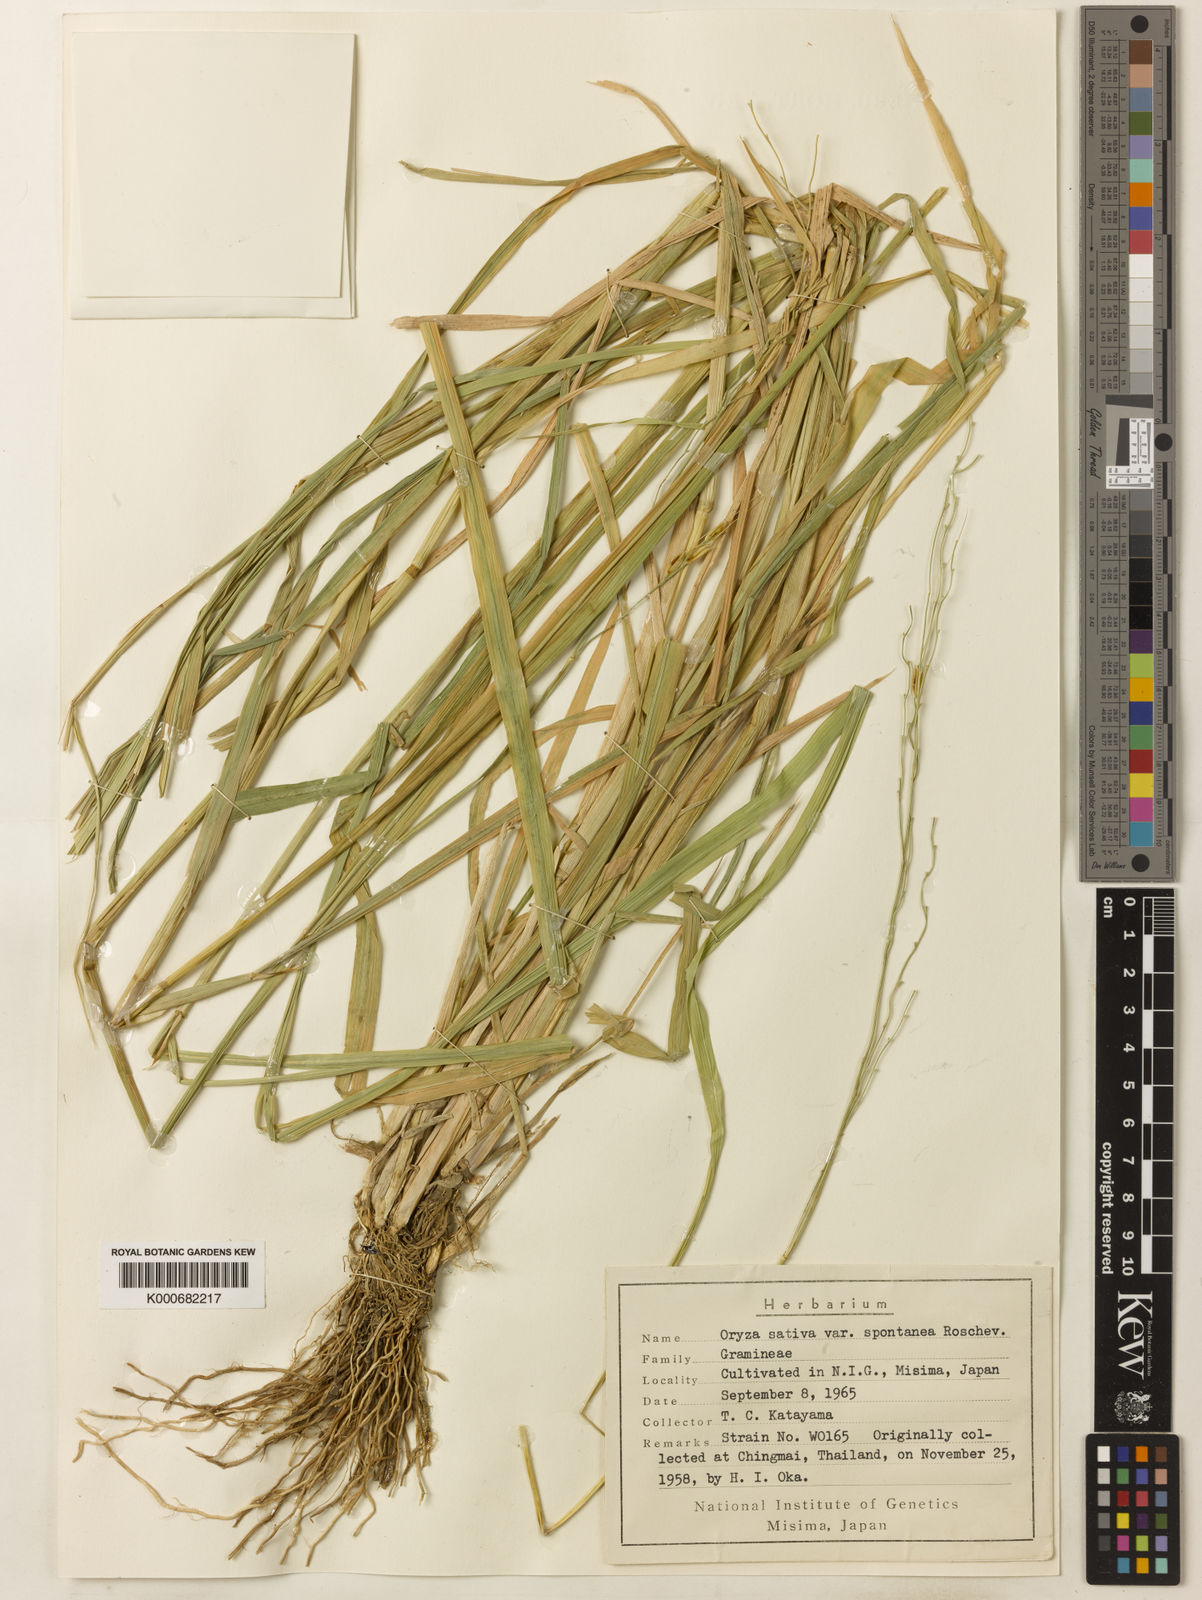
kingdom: Plantae
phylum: Tracheophyta
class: Liliopsida
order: Poales
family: Poaceae
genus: Oryza
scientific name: Oryza rufipogon
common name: Red rice
